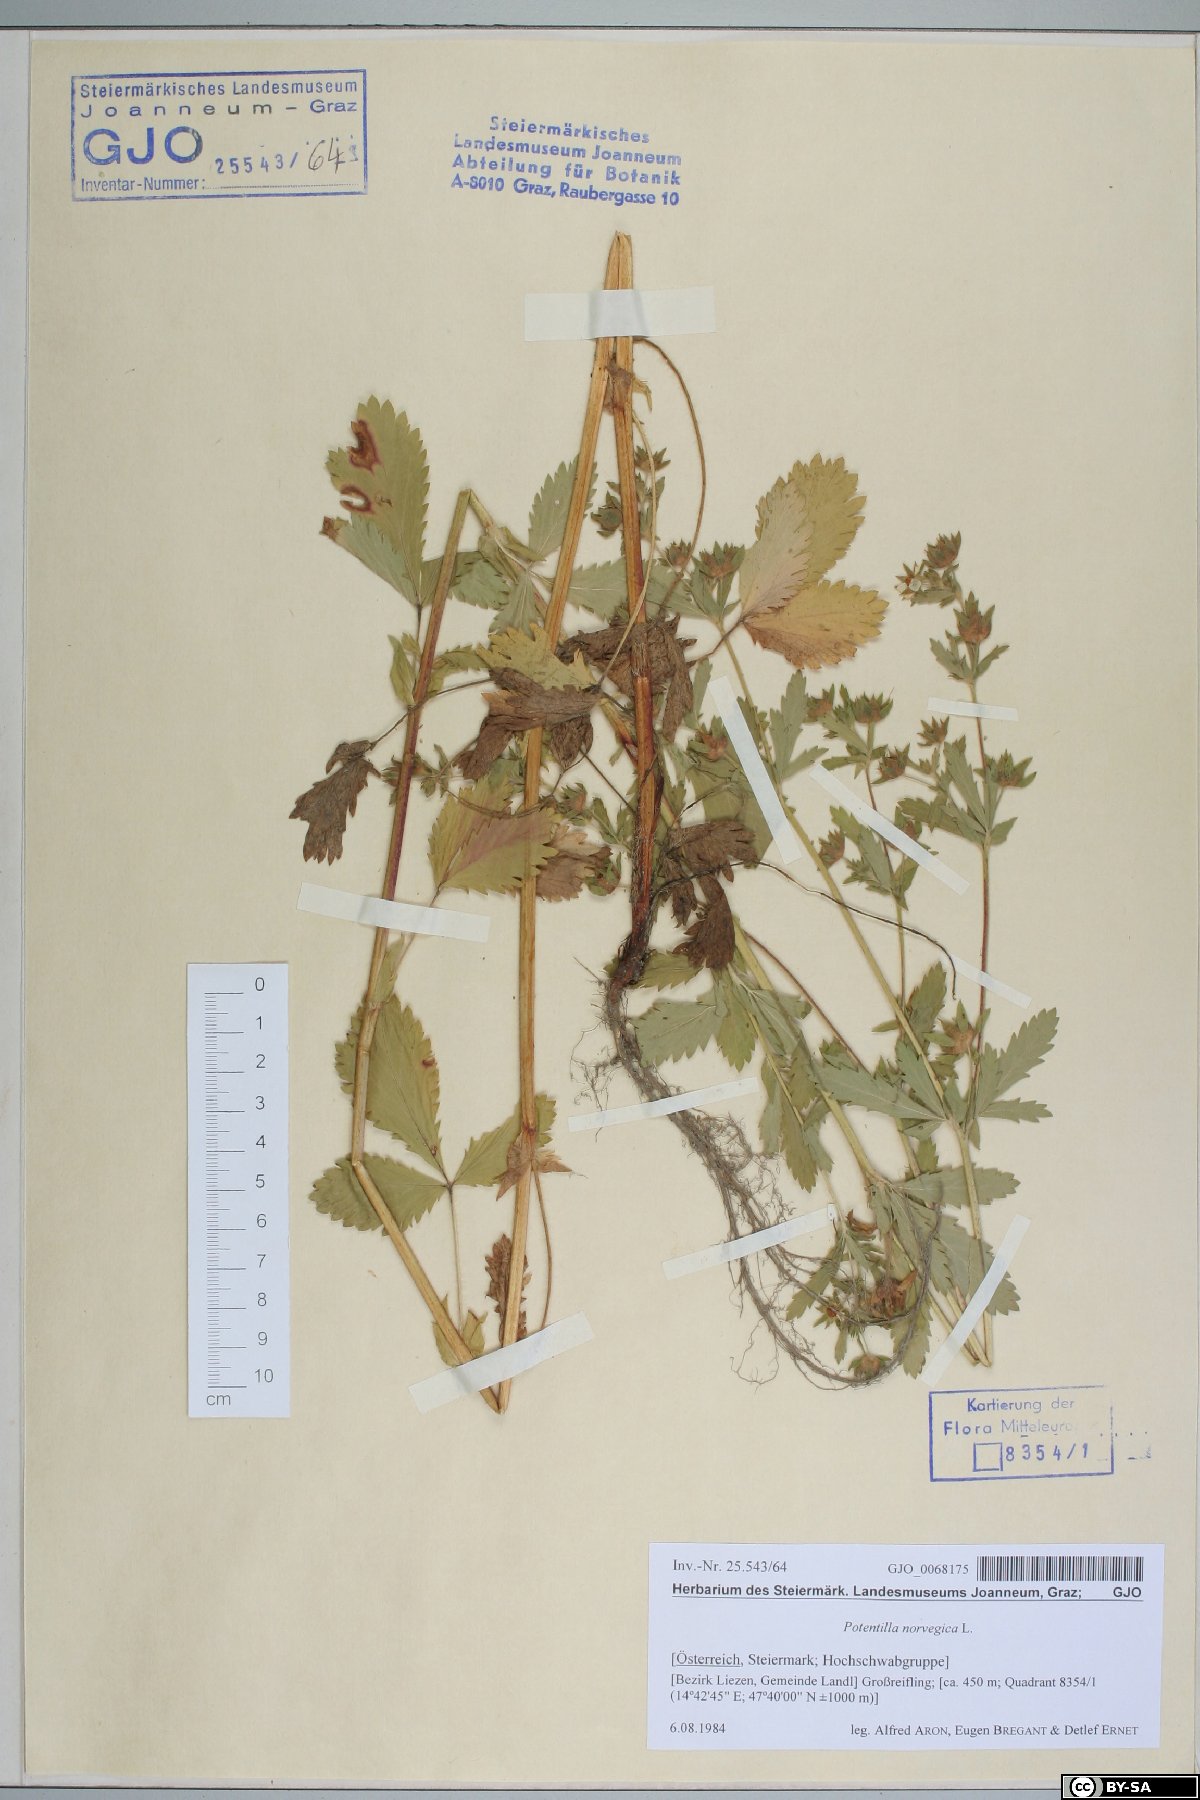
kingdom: Plantae
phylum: Tracheophyta
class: Magnoliopsida
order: Rosales
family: Rosaceae
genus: Potentilla
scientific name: Potentilla norvegica
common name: Ternate-leaved cinquefoil
